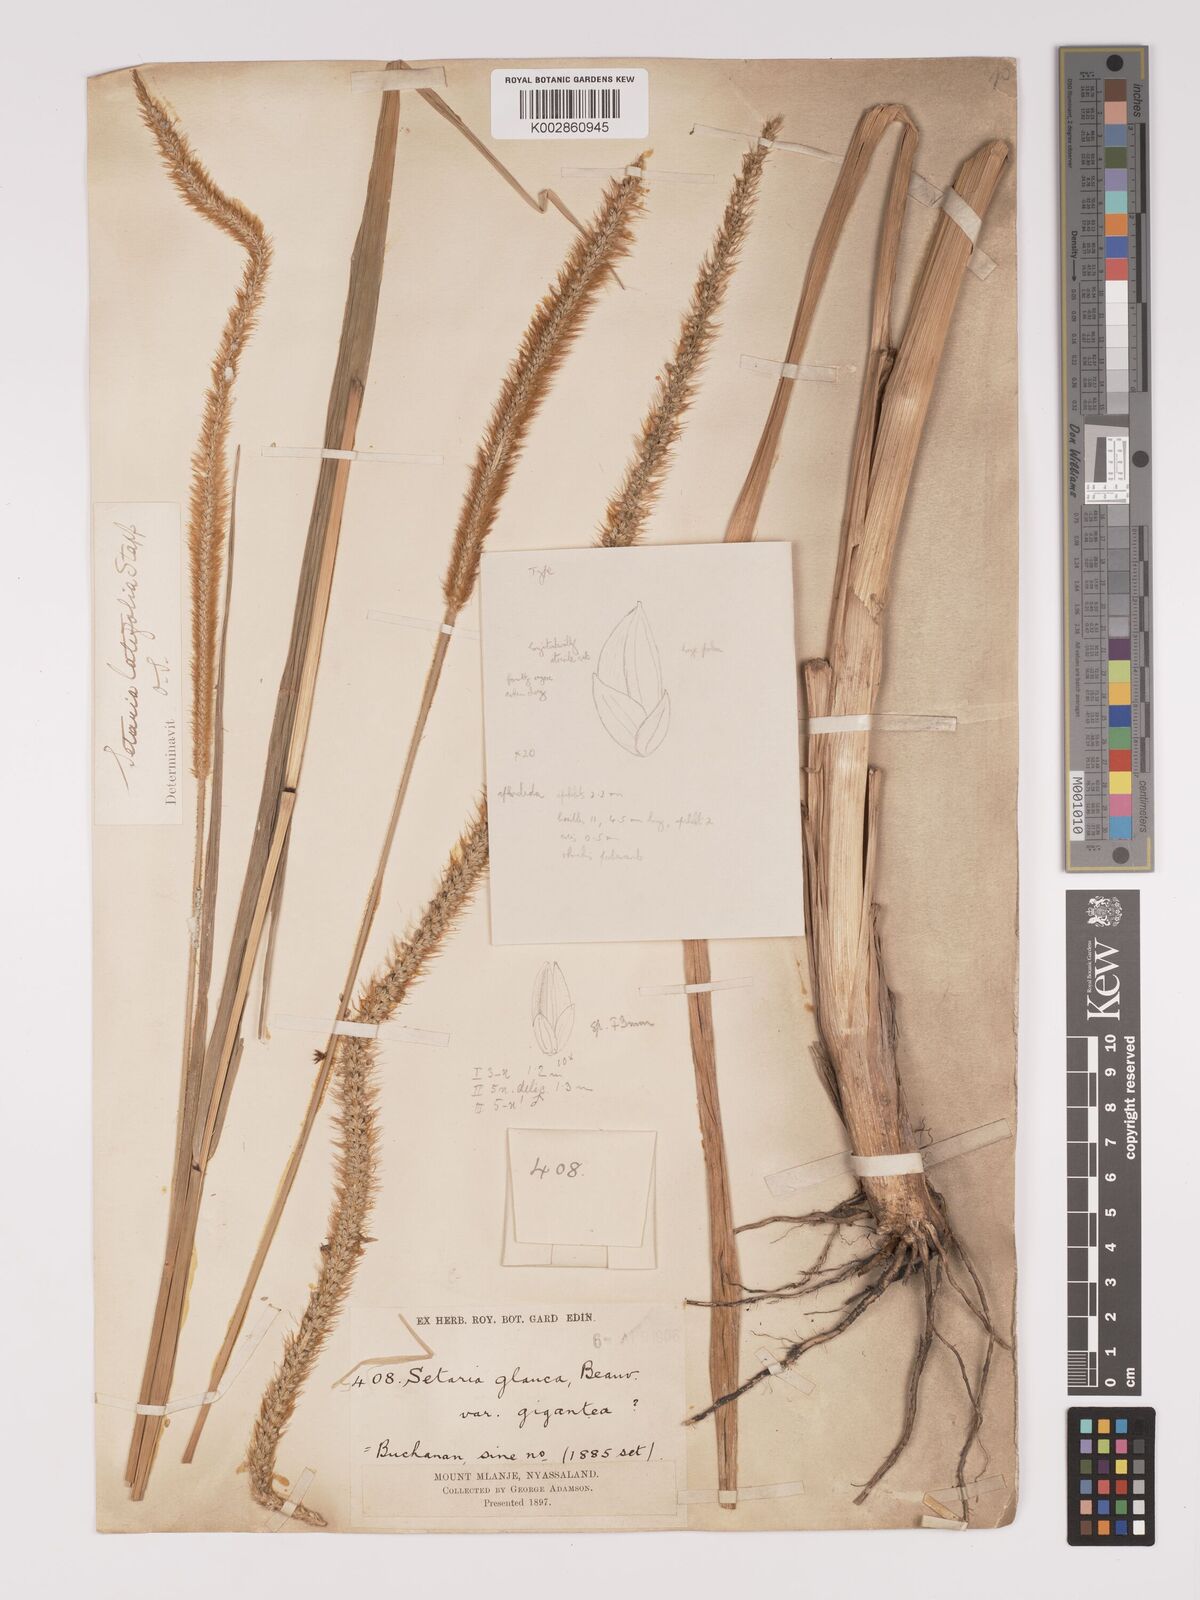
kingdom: Plantae
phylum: Tracheophyta
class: Liliopsida
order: Poales
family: Poaceae
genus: Setaria
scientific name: Setaria sphacelata
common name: African bristlegrass
